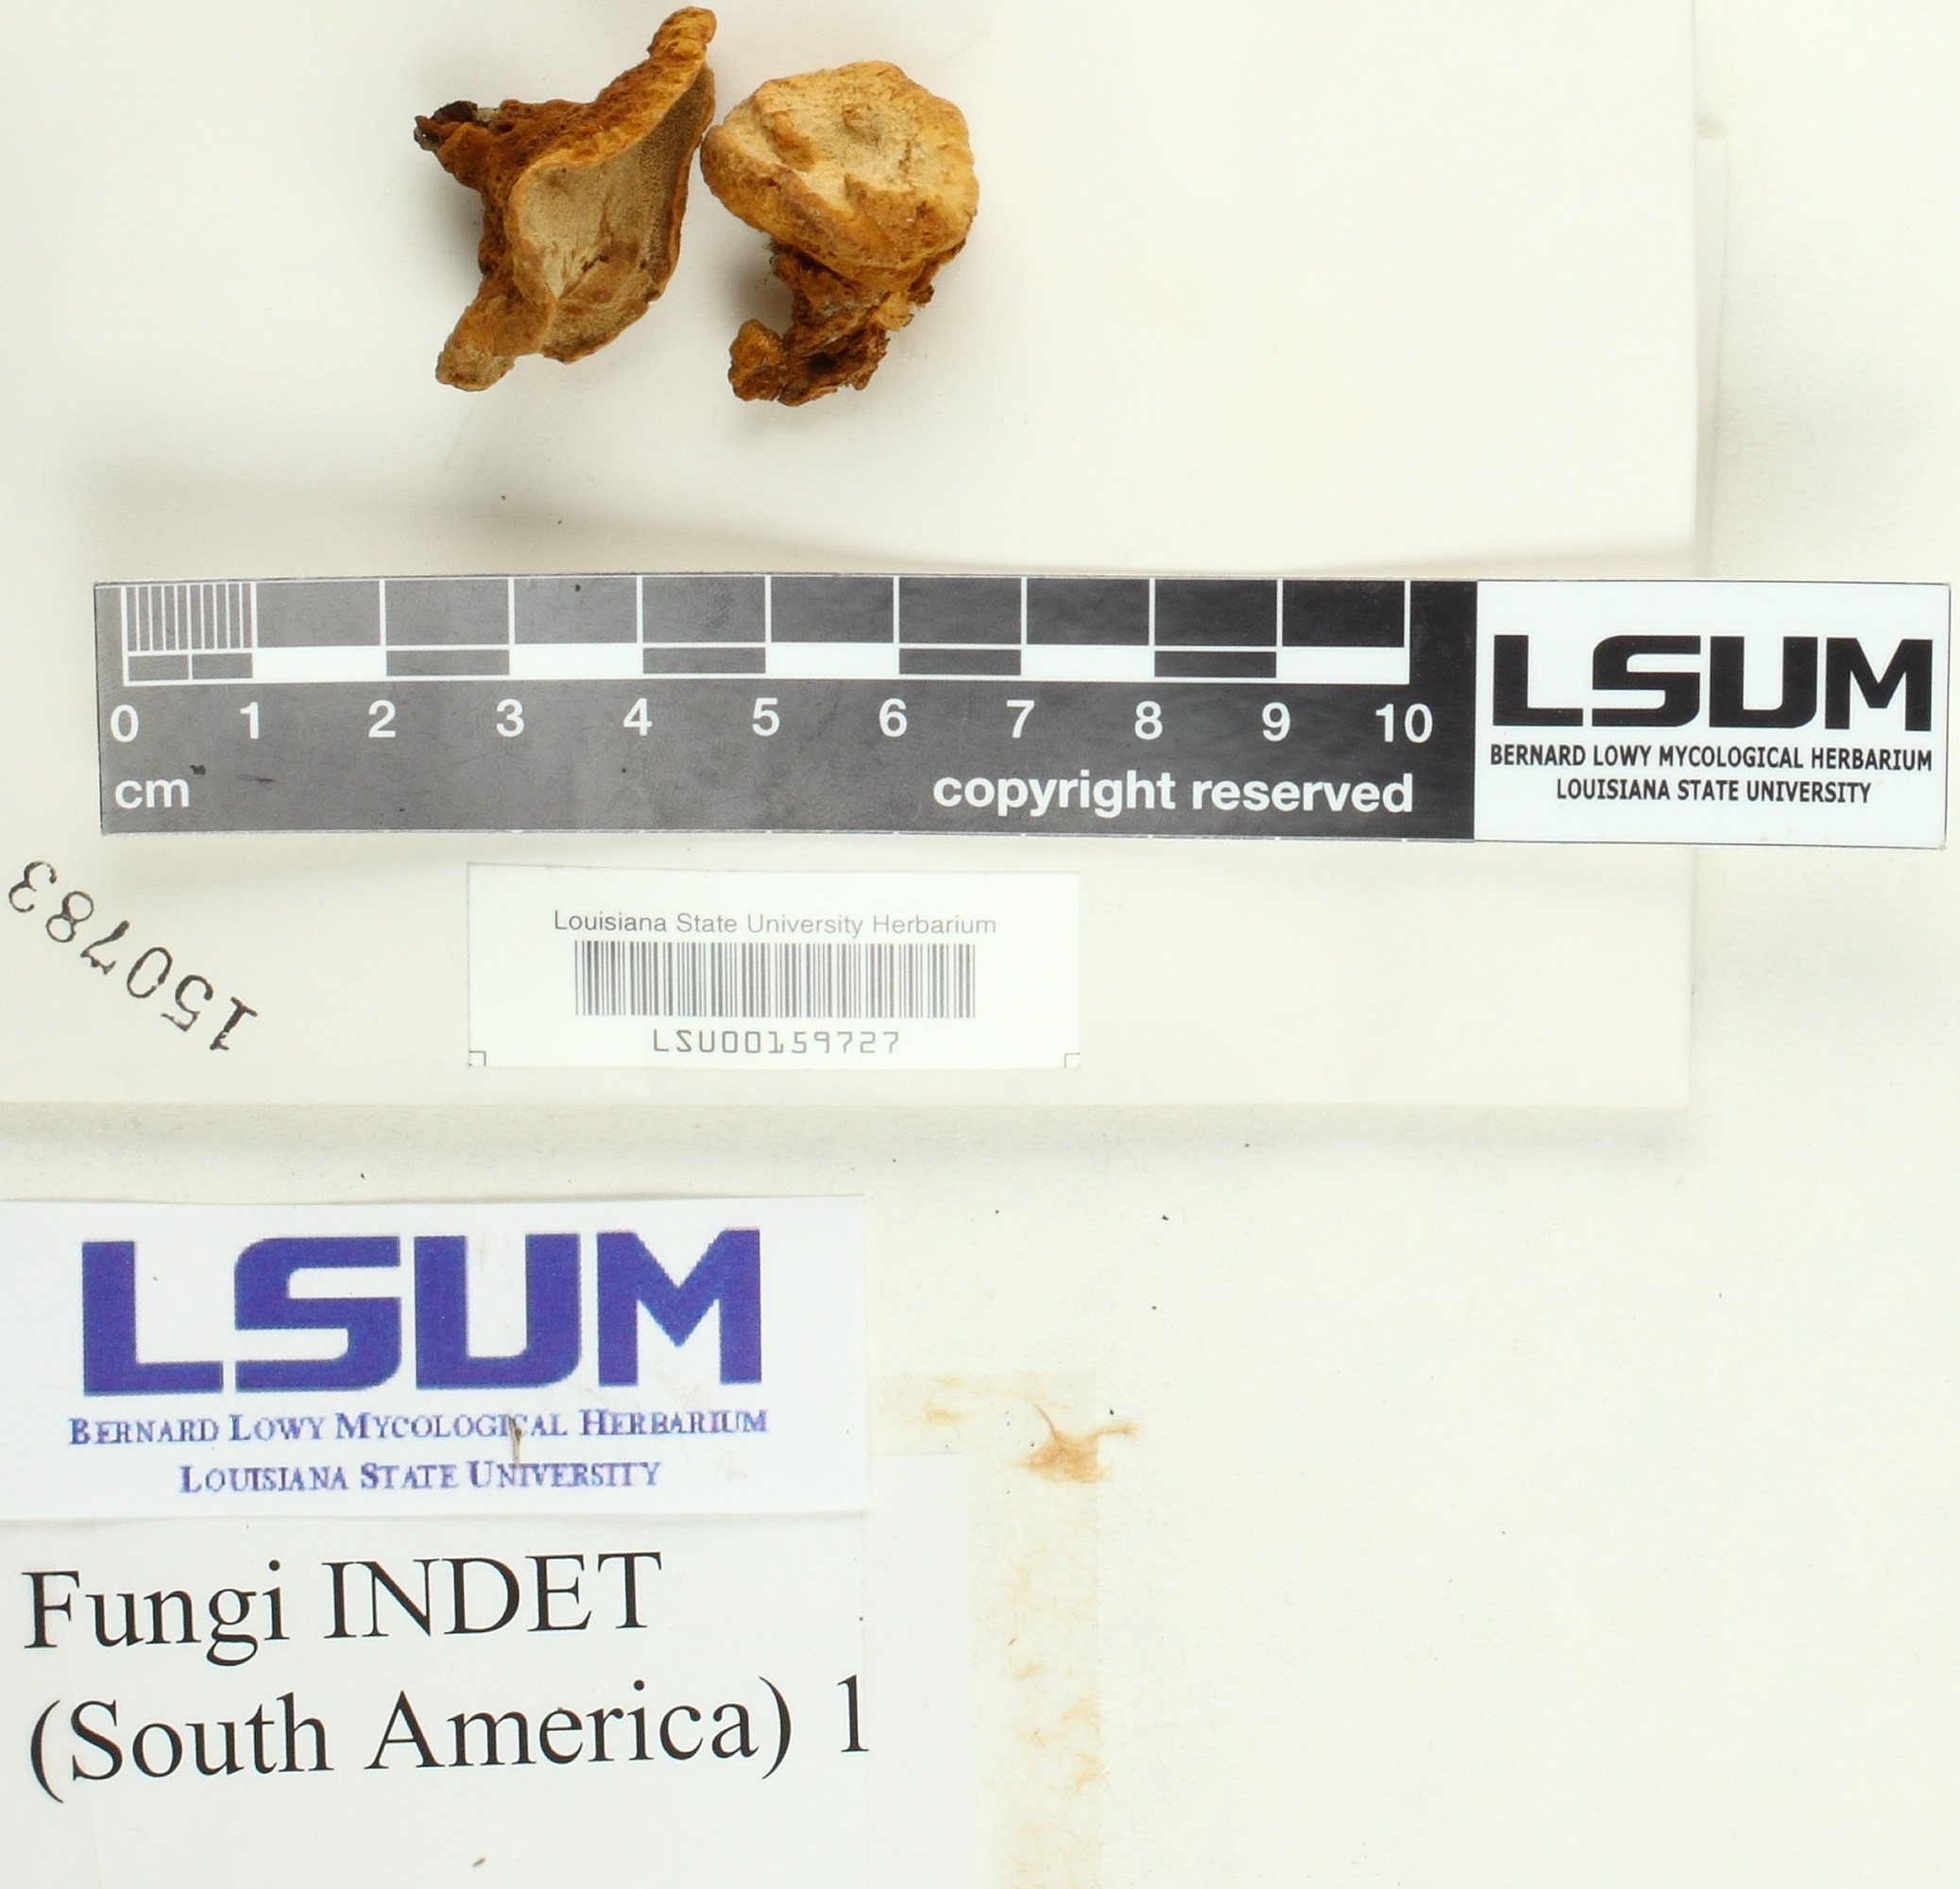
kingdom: Fungi
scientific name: Fungi
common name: Fungi
